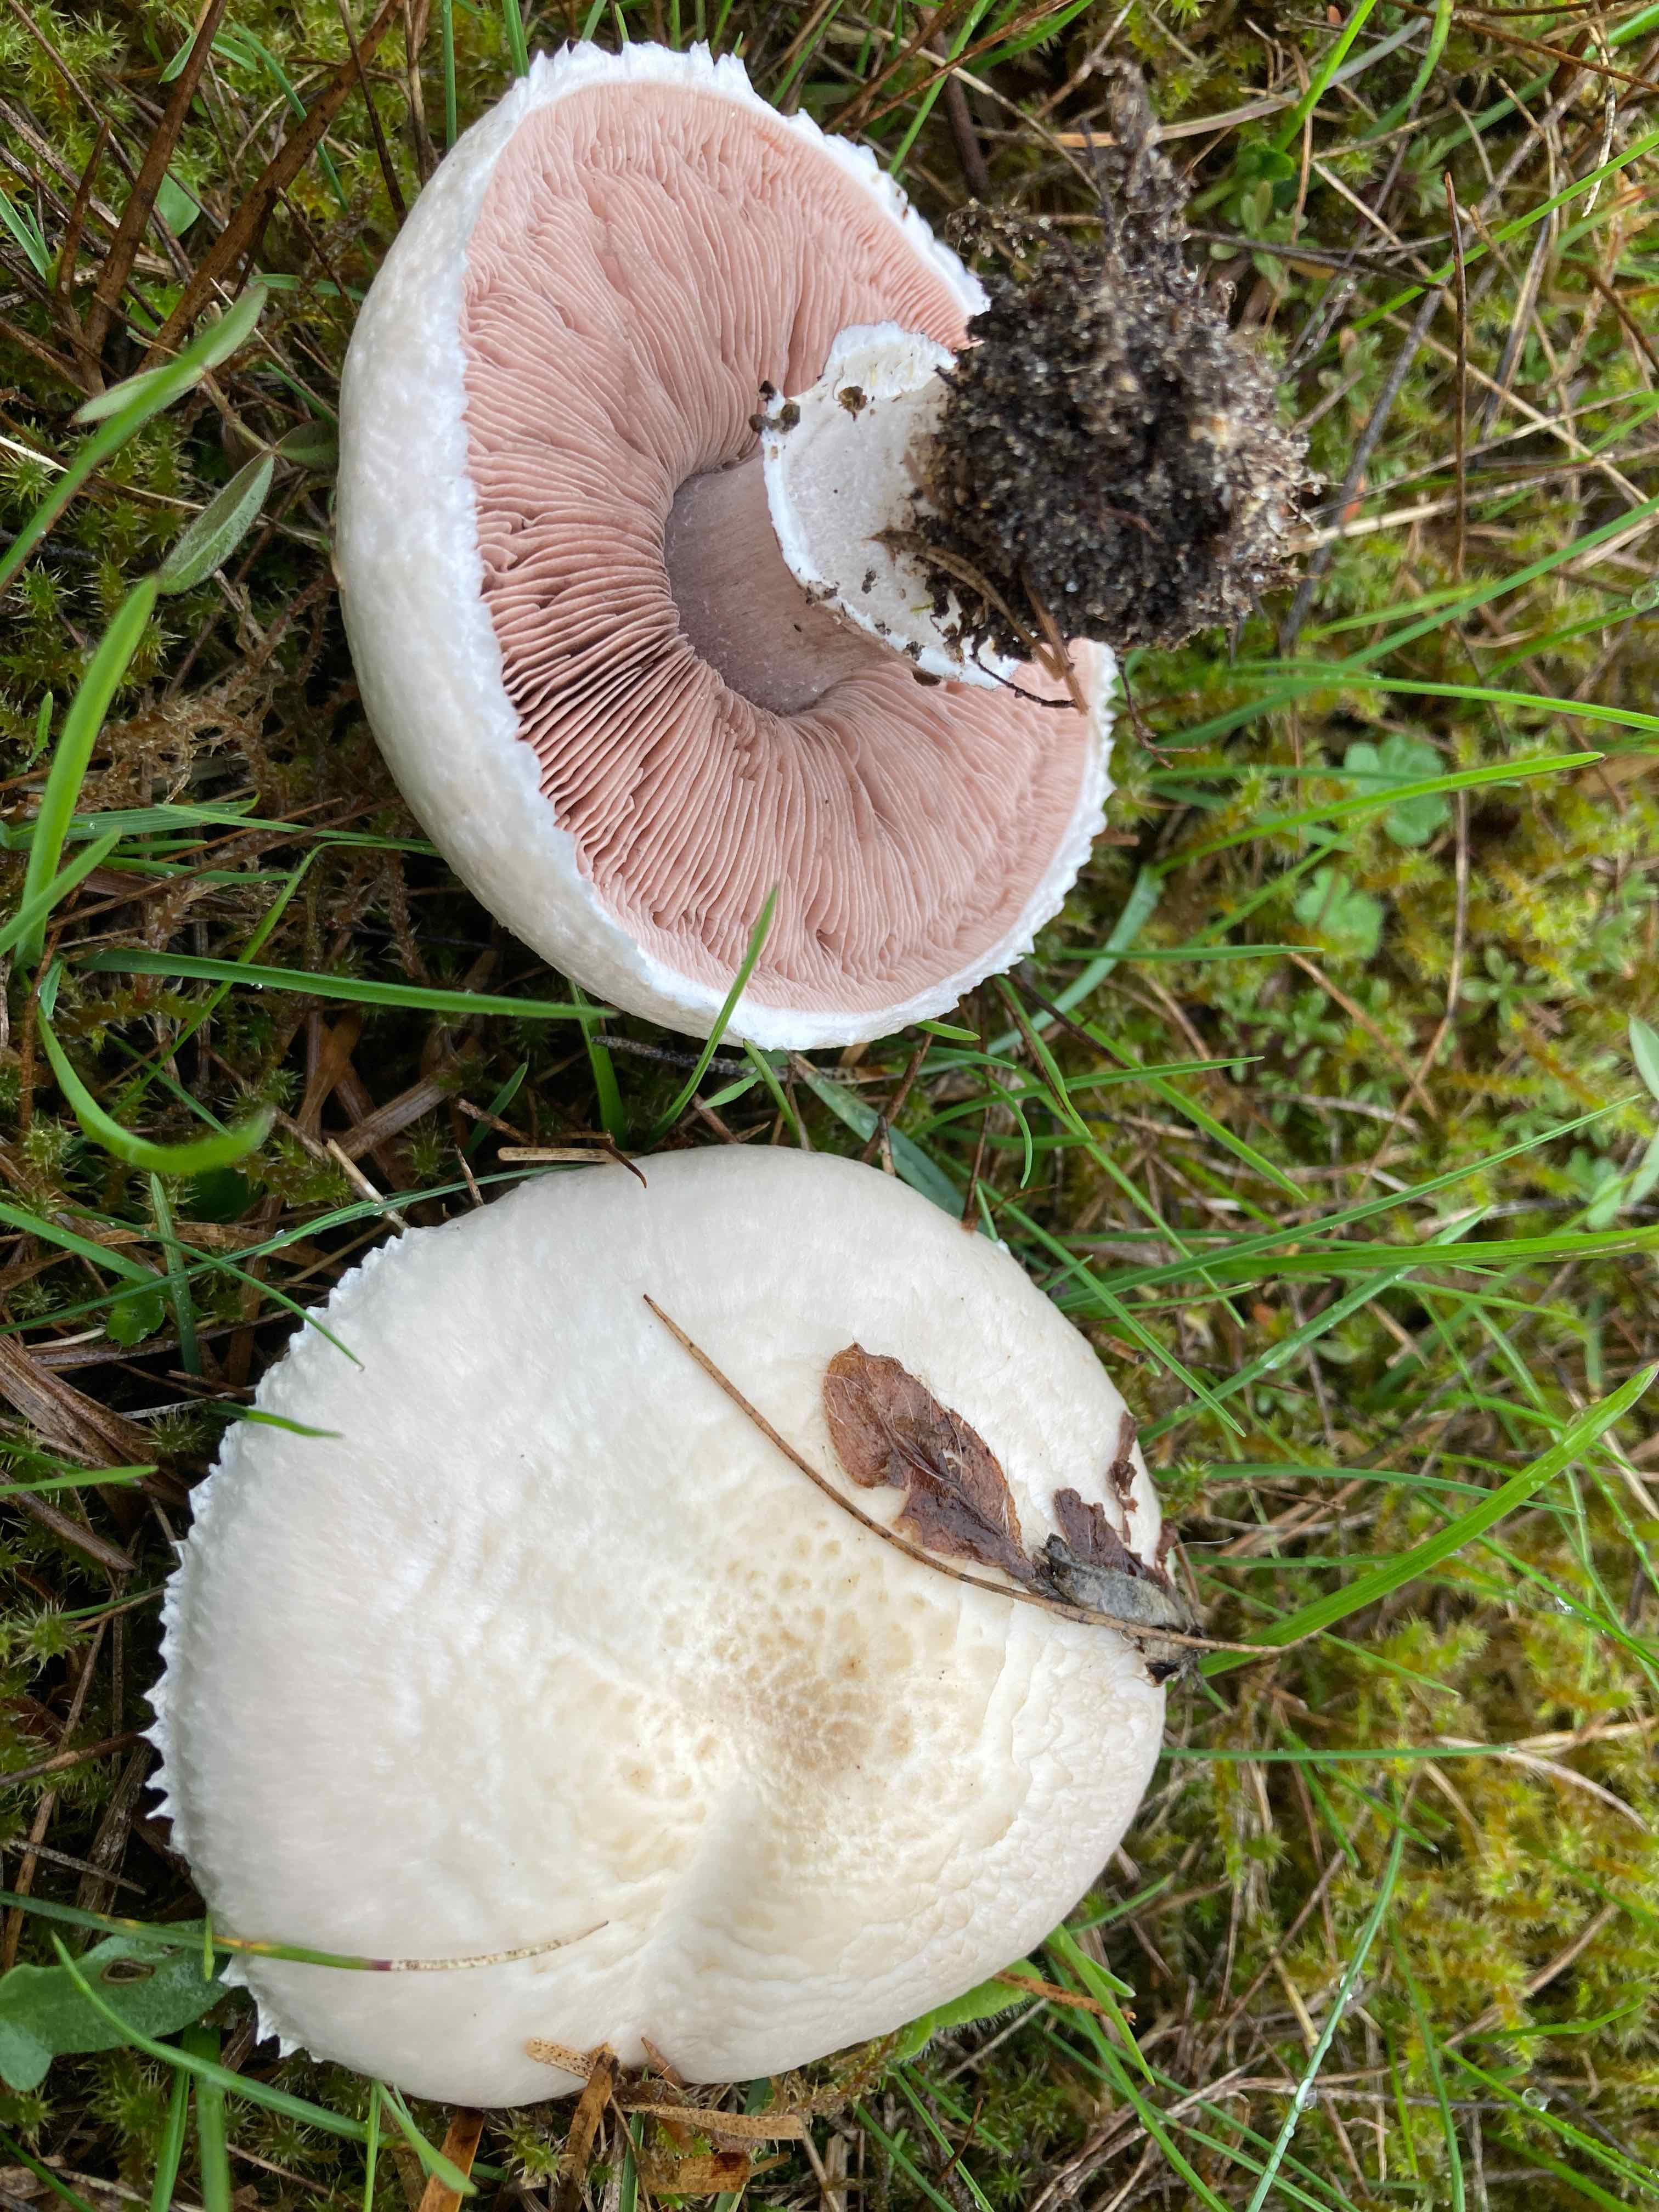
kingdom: Fungi
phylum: Basidiomycota
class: Agaricomycetes
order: Agaricales
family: Agaricaceae
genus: Agaricus
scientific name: Agaricus litoralis
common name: kyst-champignon
